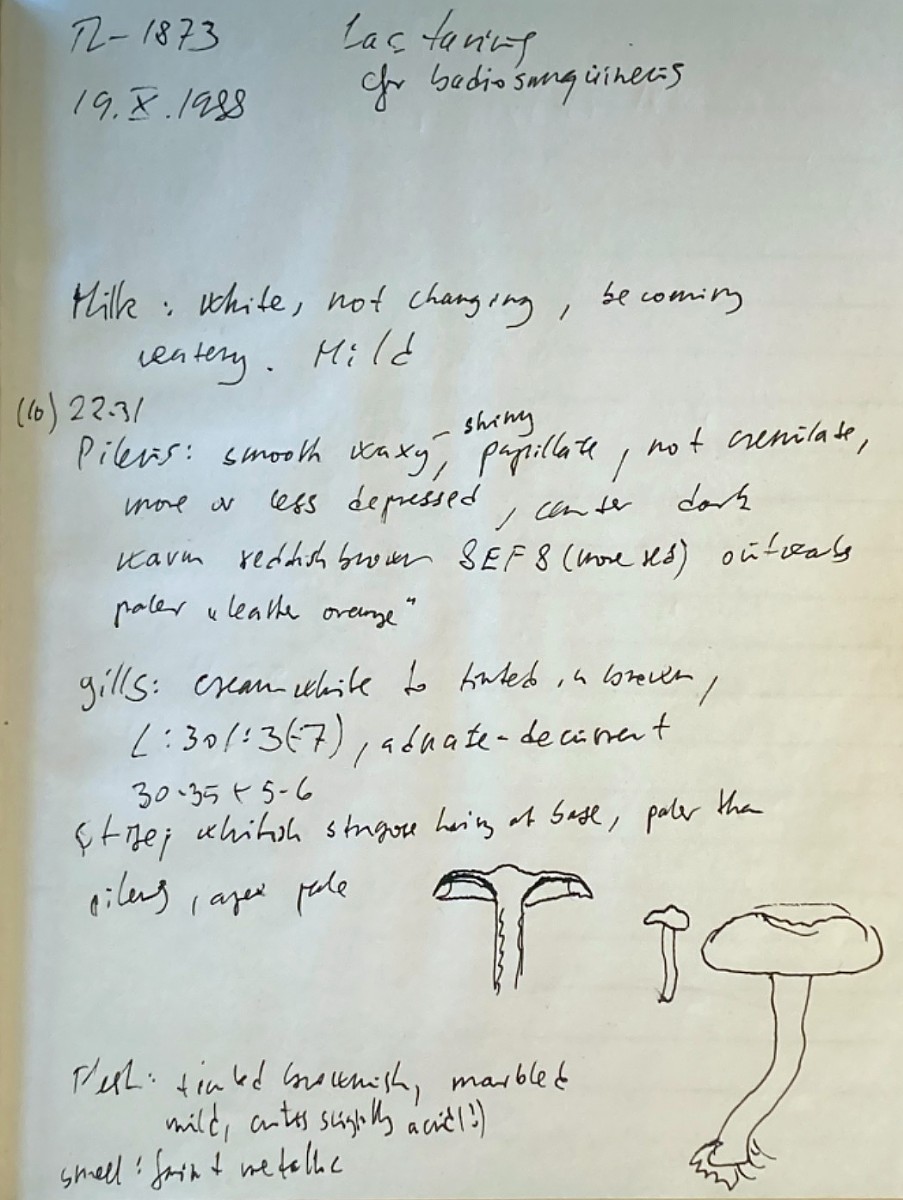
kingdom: Fungi
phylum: Basidiomycota
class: Agaricomycetes
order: Russulales
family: Russulaceae
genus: Lactarius
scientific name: Lactarius badiosanguineus
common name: brunrød mælkehat
